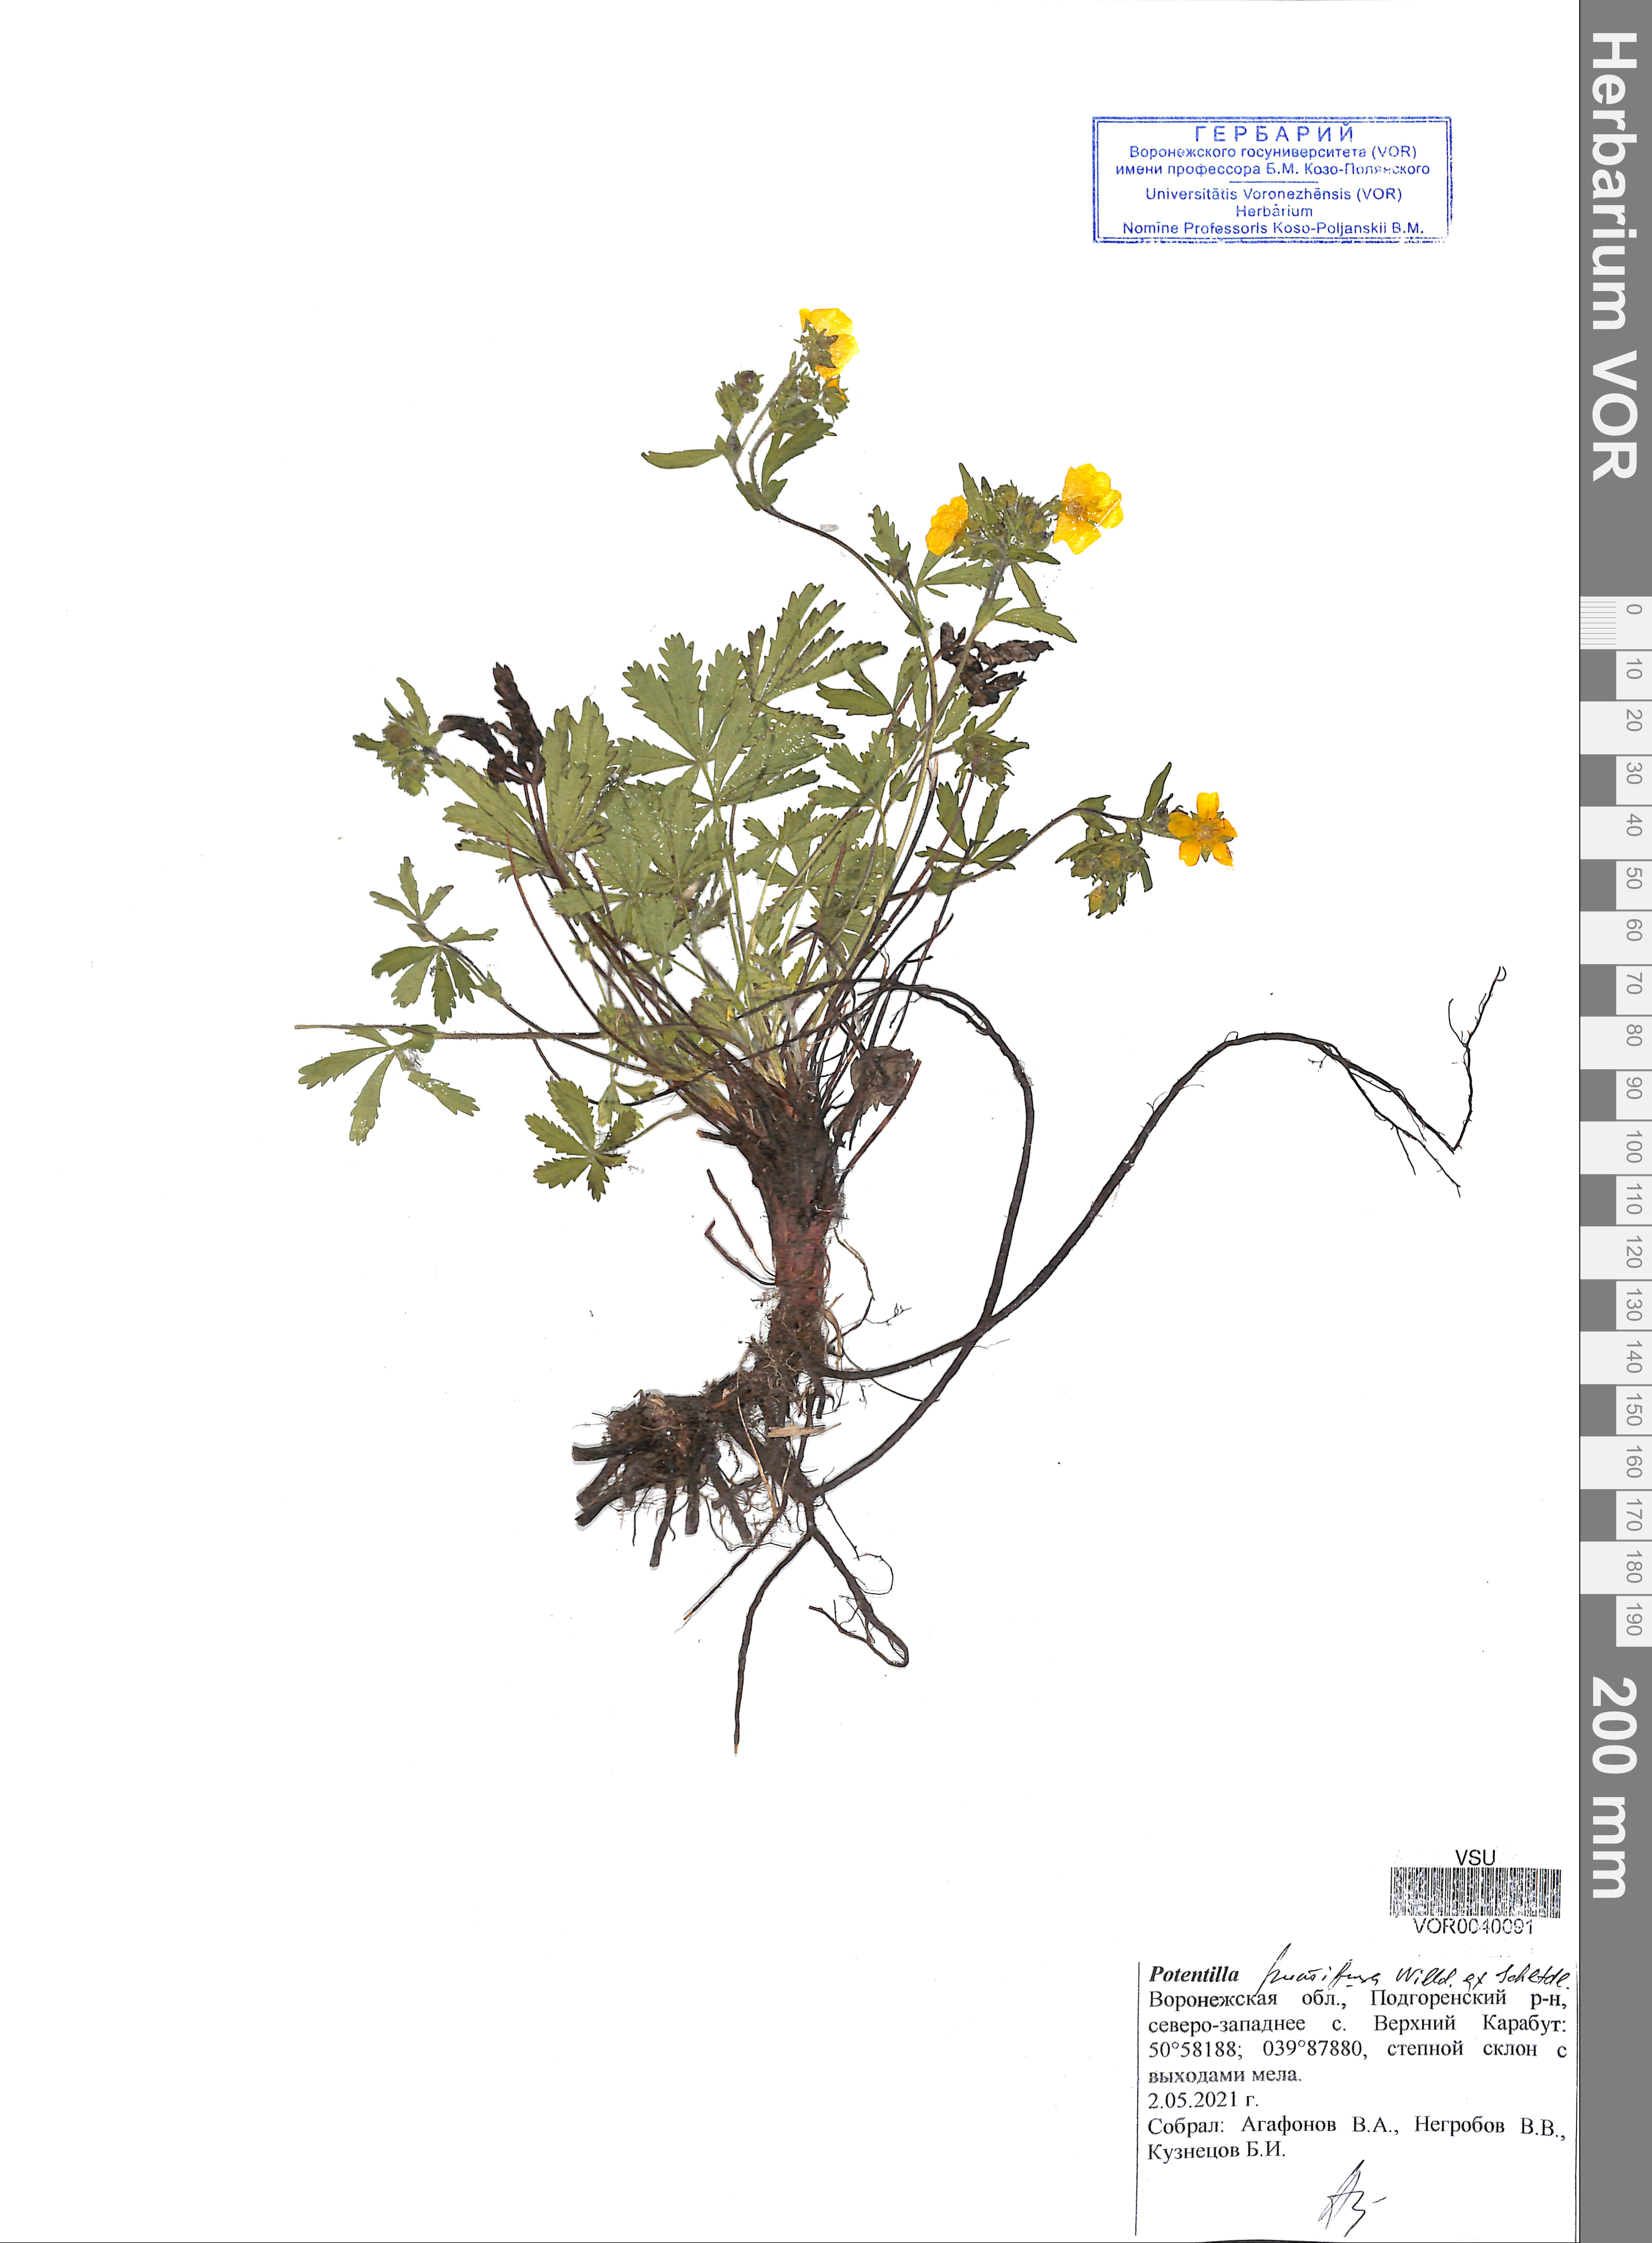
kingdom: Plantae
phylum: Tracheophyta
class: Magnoliopsida
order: Rosales
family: Rosaceae
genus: Potentilla
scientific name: Potentilla humifusa
